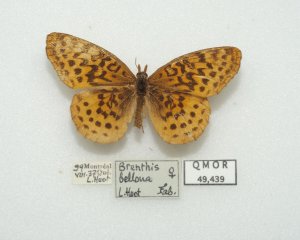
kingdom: Animalia
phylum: Arthropoda
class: Insecta
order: Lepidoptera
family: Nymphalidae
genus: Clossiana
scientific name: Clossiana toddi
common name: Meadow Fritillary
